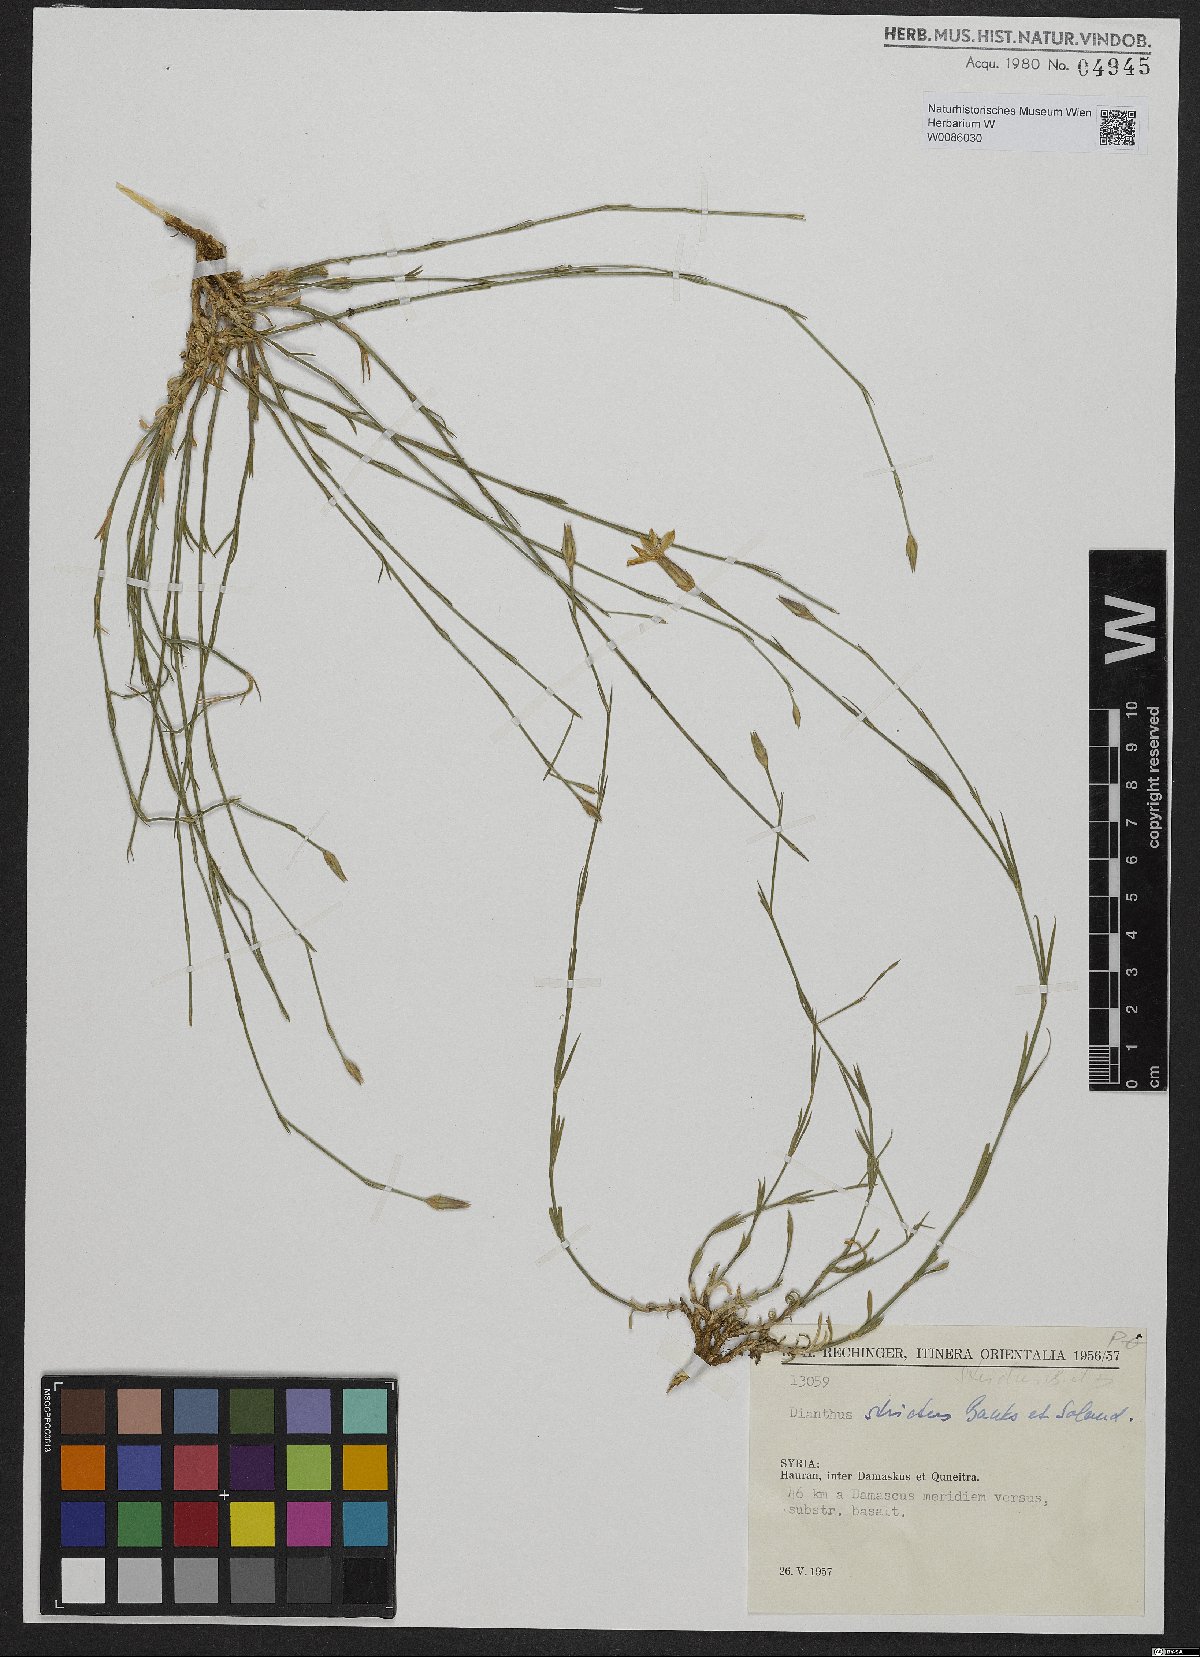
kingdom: Plantae
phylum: Tracheophyta
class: Magnoliopsida
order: Caryophyllales
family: Caryophyllaceae
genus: Dianthus
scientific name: Dianthus strictus
